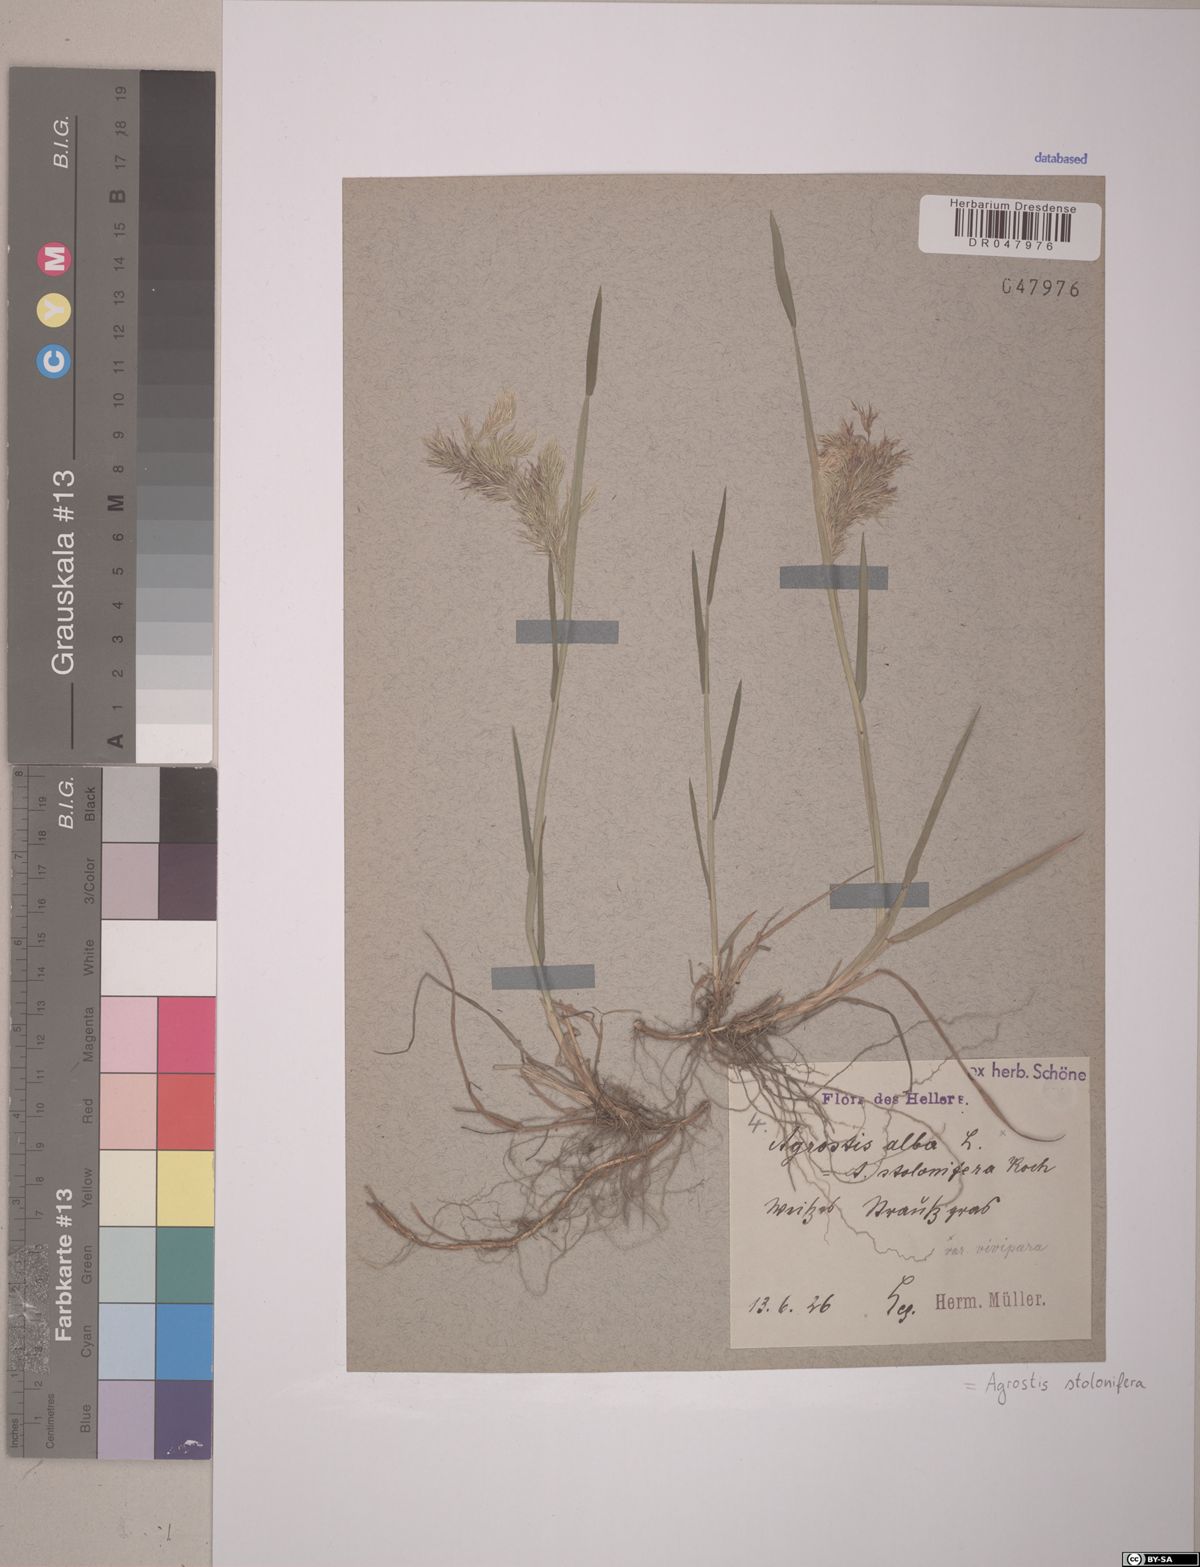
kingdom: Plantae
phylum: Tracheophyta
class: Liliopsida
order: Poales
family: Poaceae
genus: Agrostis
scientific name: Agrostis stolonifera
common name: Creeping bentgrass
